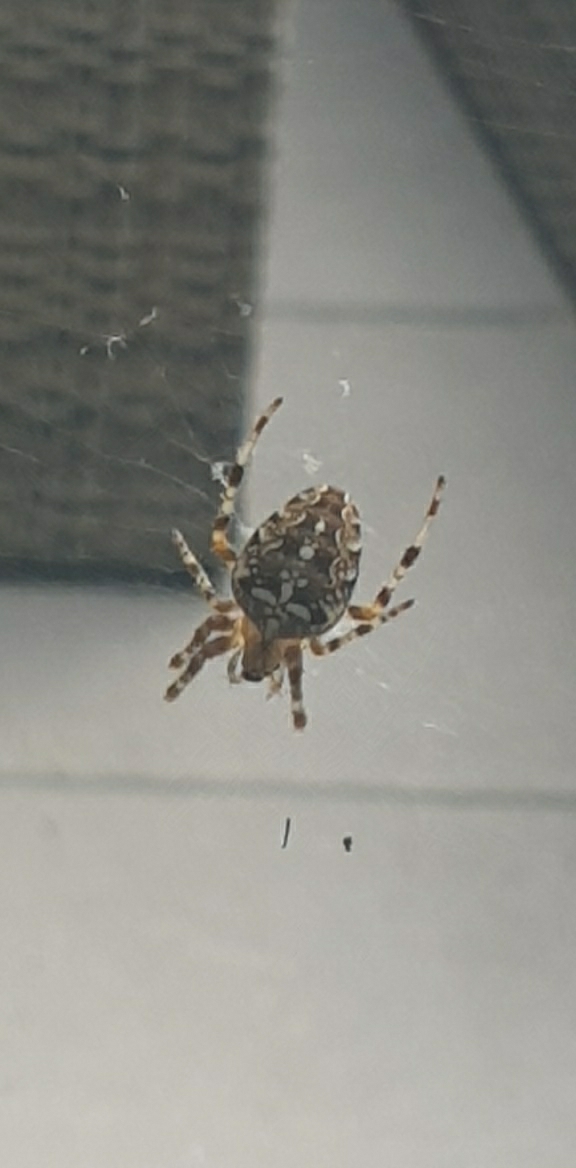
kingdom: Animalia
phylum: Arthropoda
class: Arachnida
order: Araneae
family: Araneidae
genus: Araneus
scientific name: Araneus diadematus
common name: Korsedderkop
